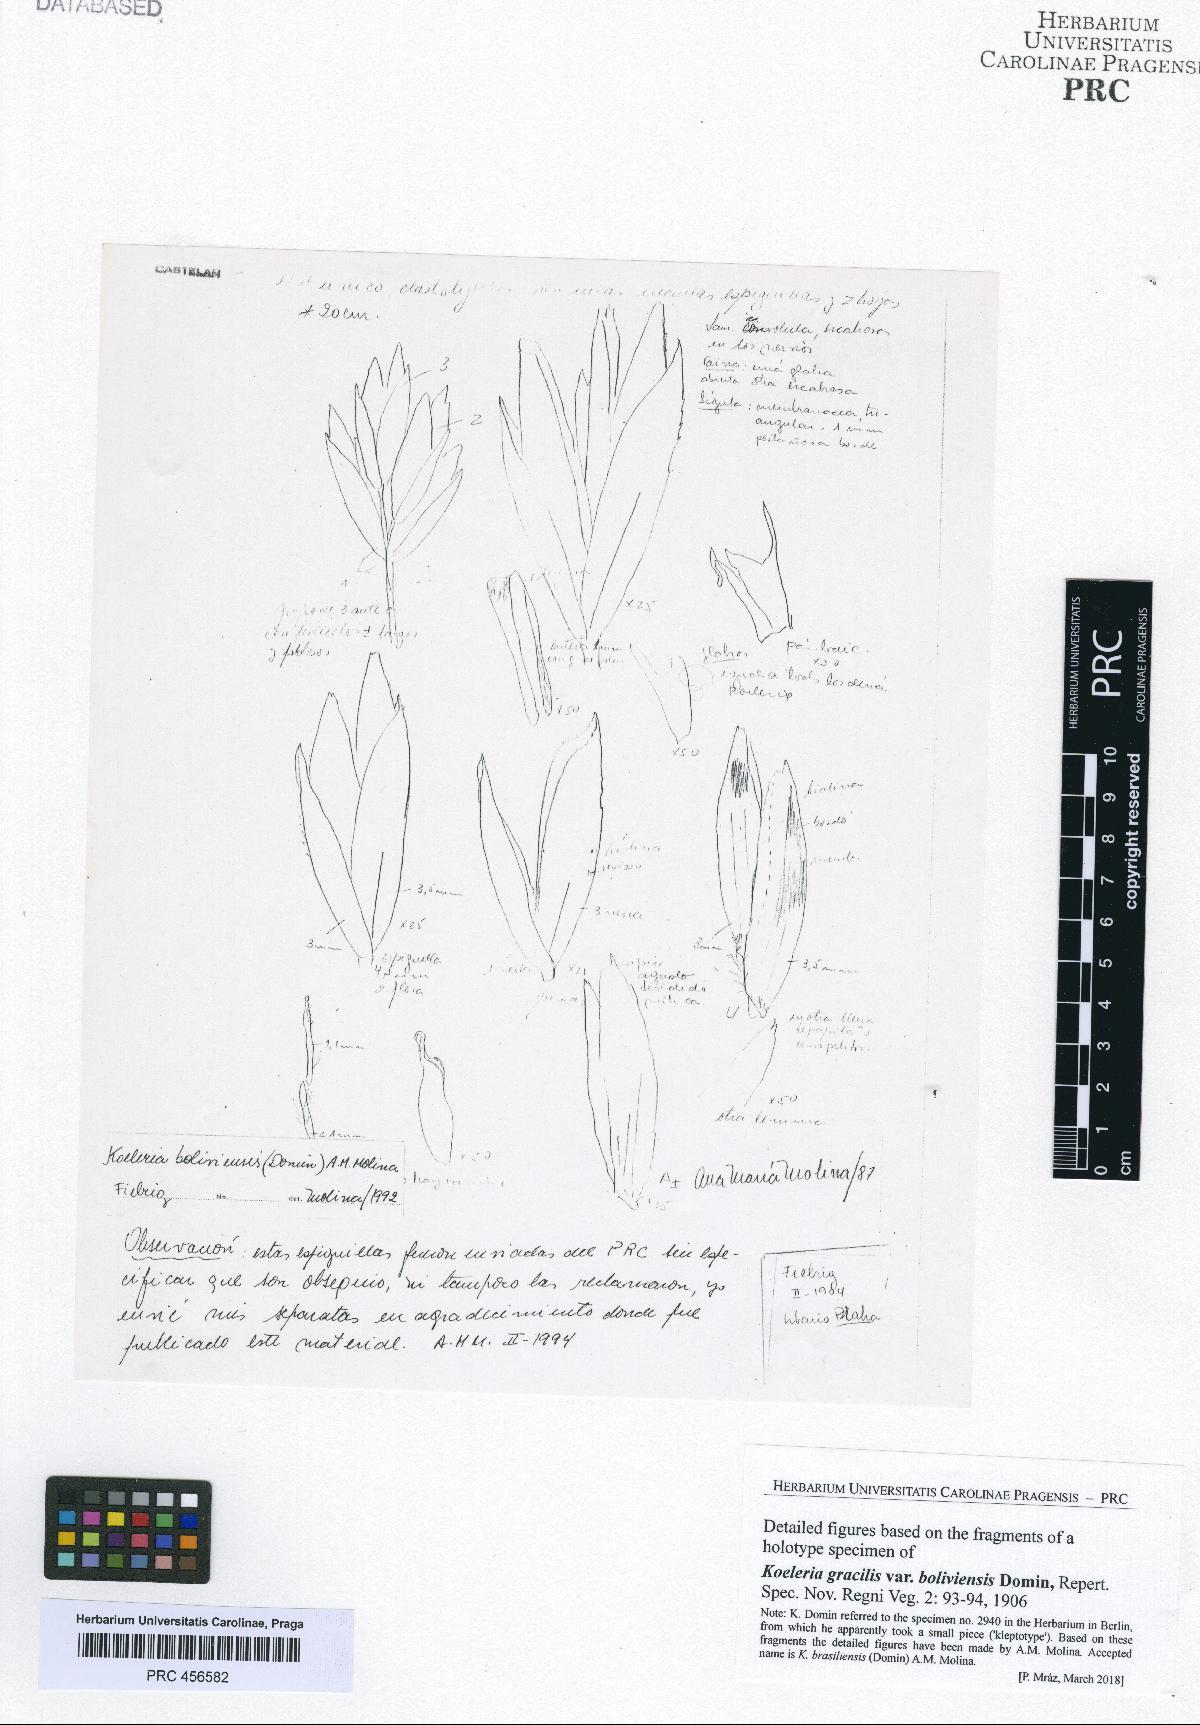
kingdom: Plantae
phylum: Tracheophyta
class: Liliopsida
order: Poales
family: Poaceae
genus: Koeleria
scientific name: Koeleria boliviensis
